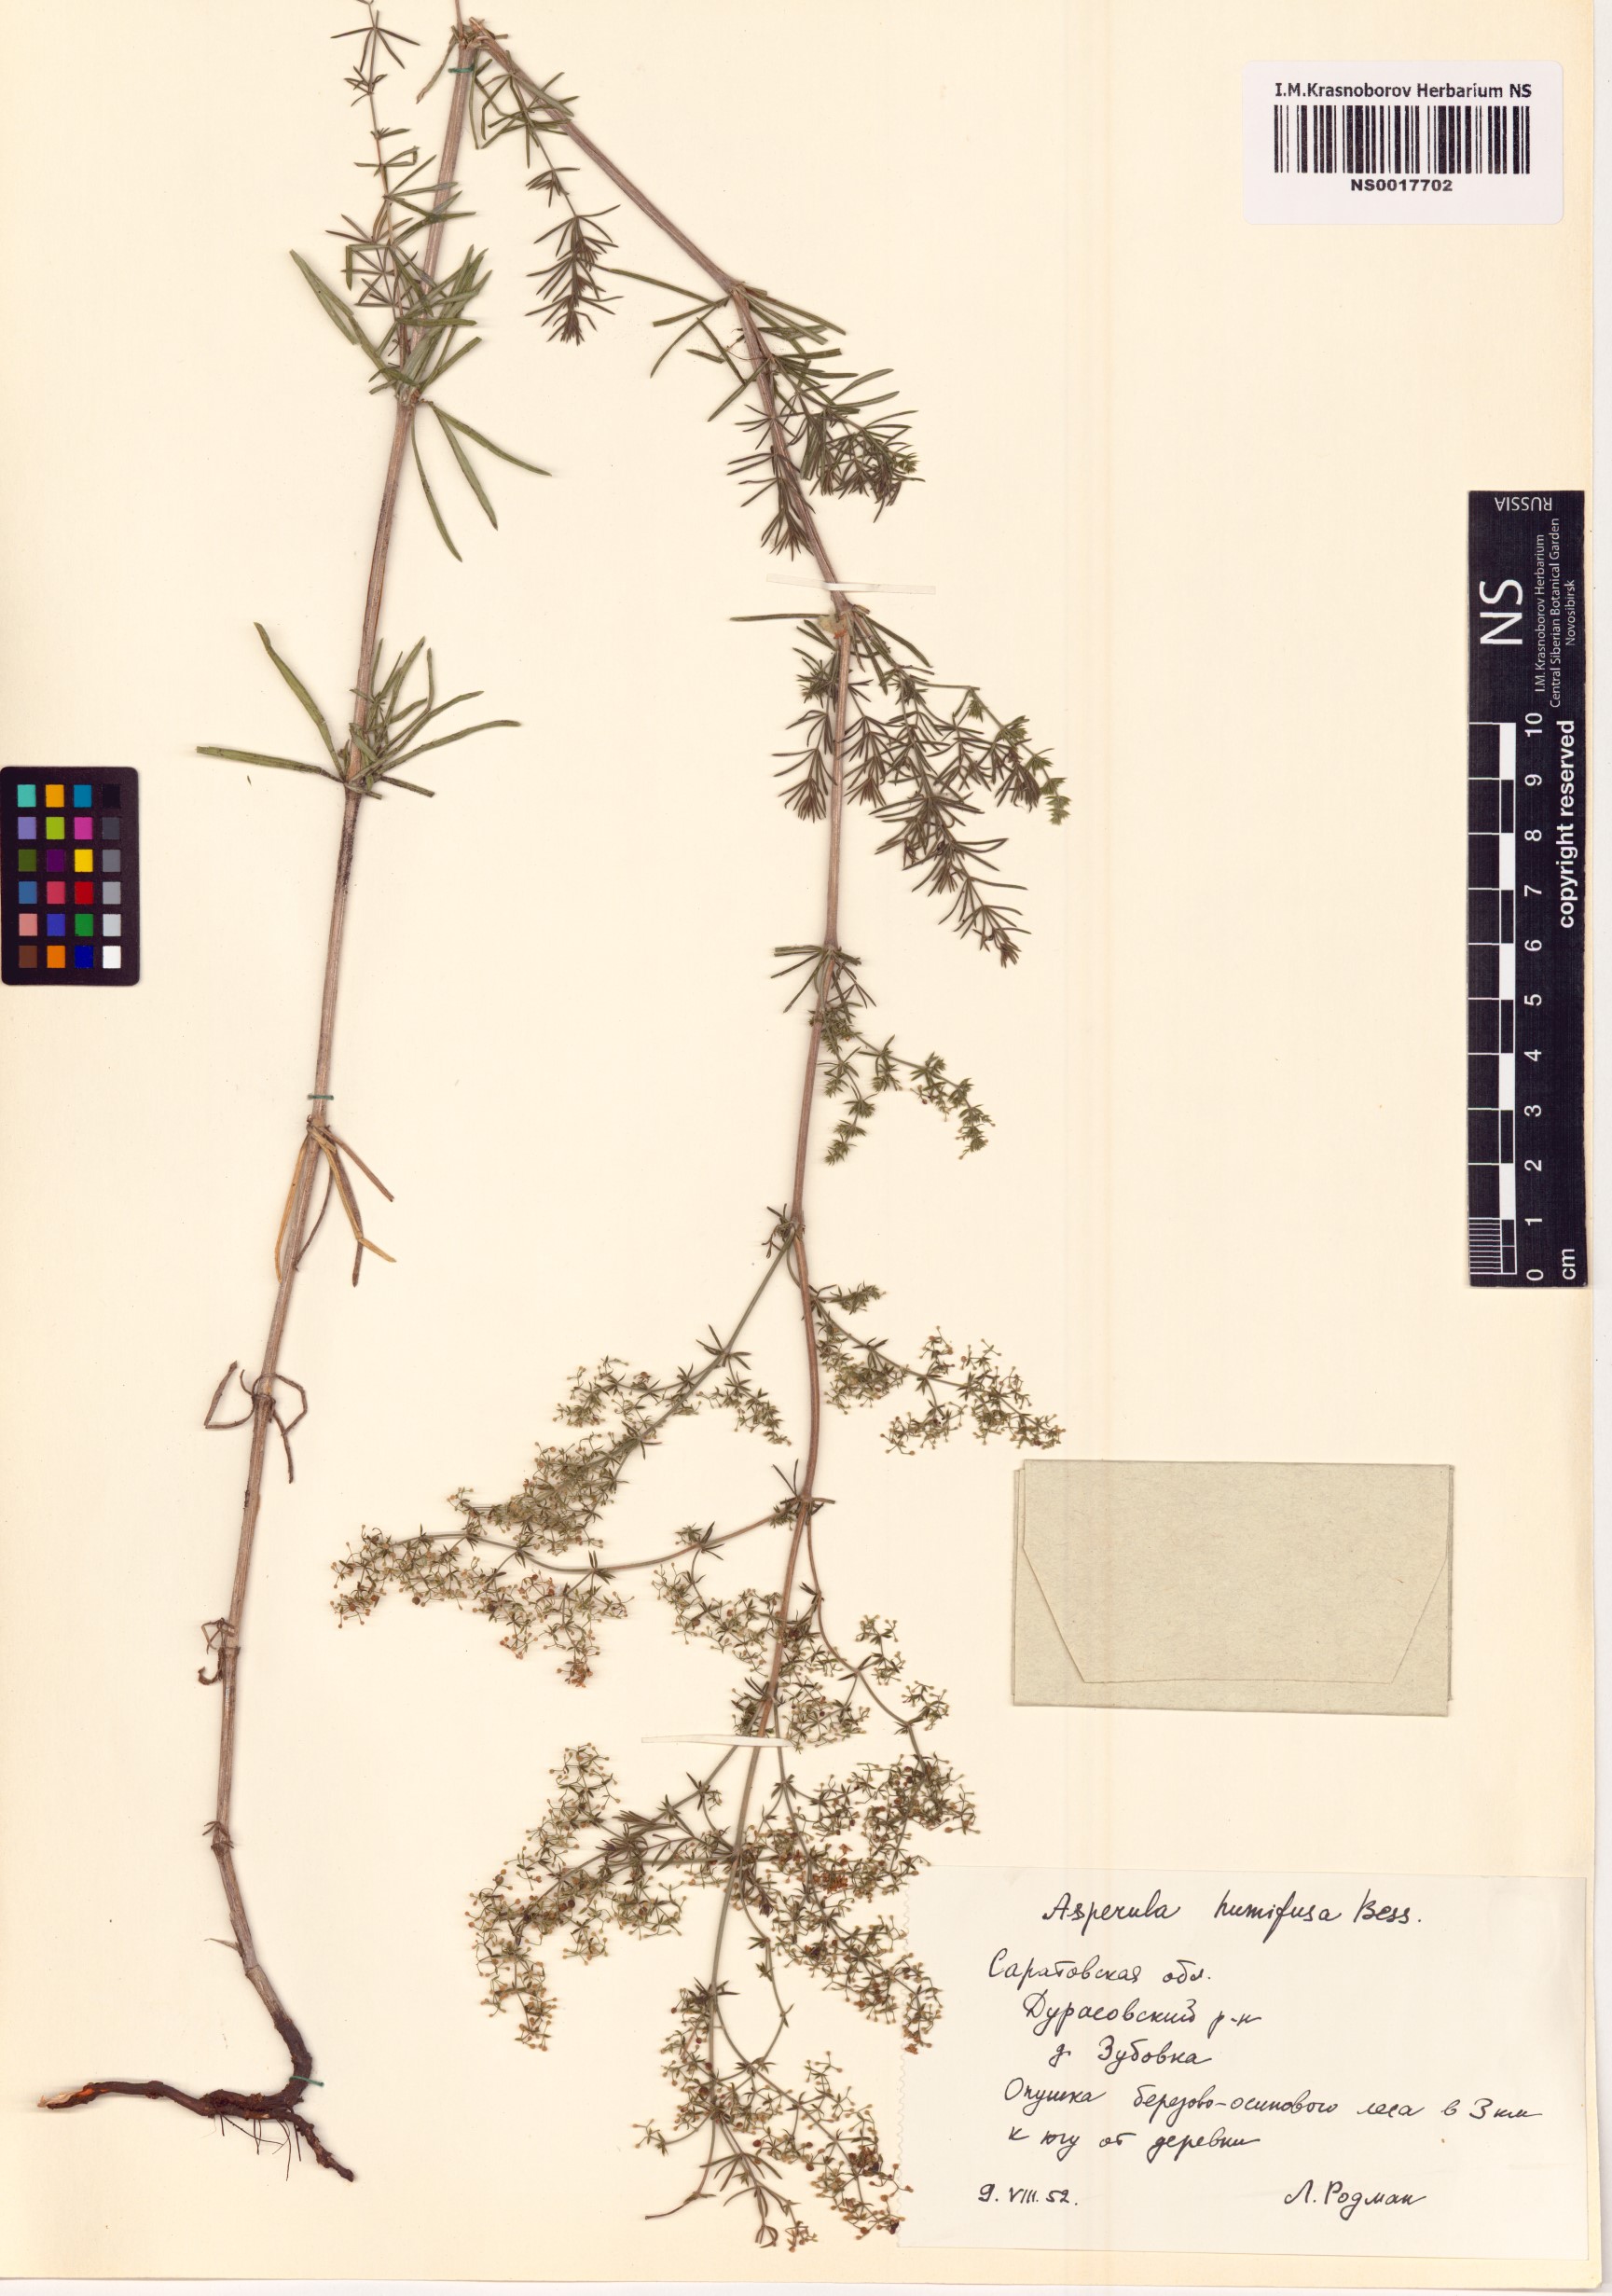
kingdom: Plantae
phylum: Tracheophyta
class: Magnoliopsida
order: Gentianales
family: Rubiaceae
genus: Galium
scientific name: Galium humifusum
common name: Spreading bedstraw
